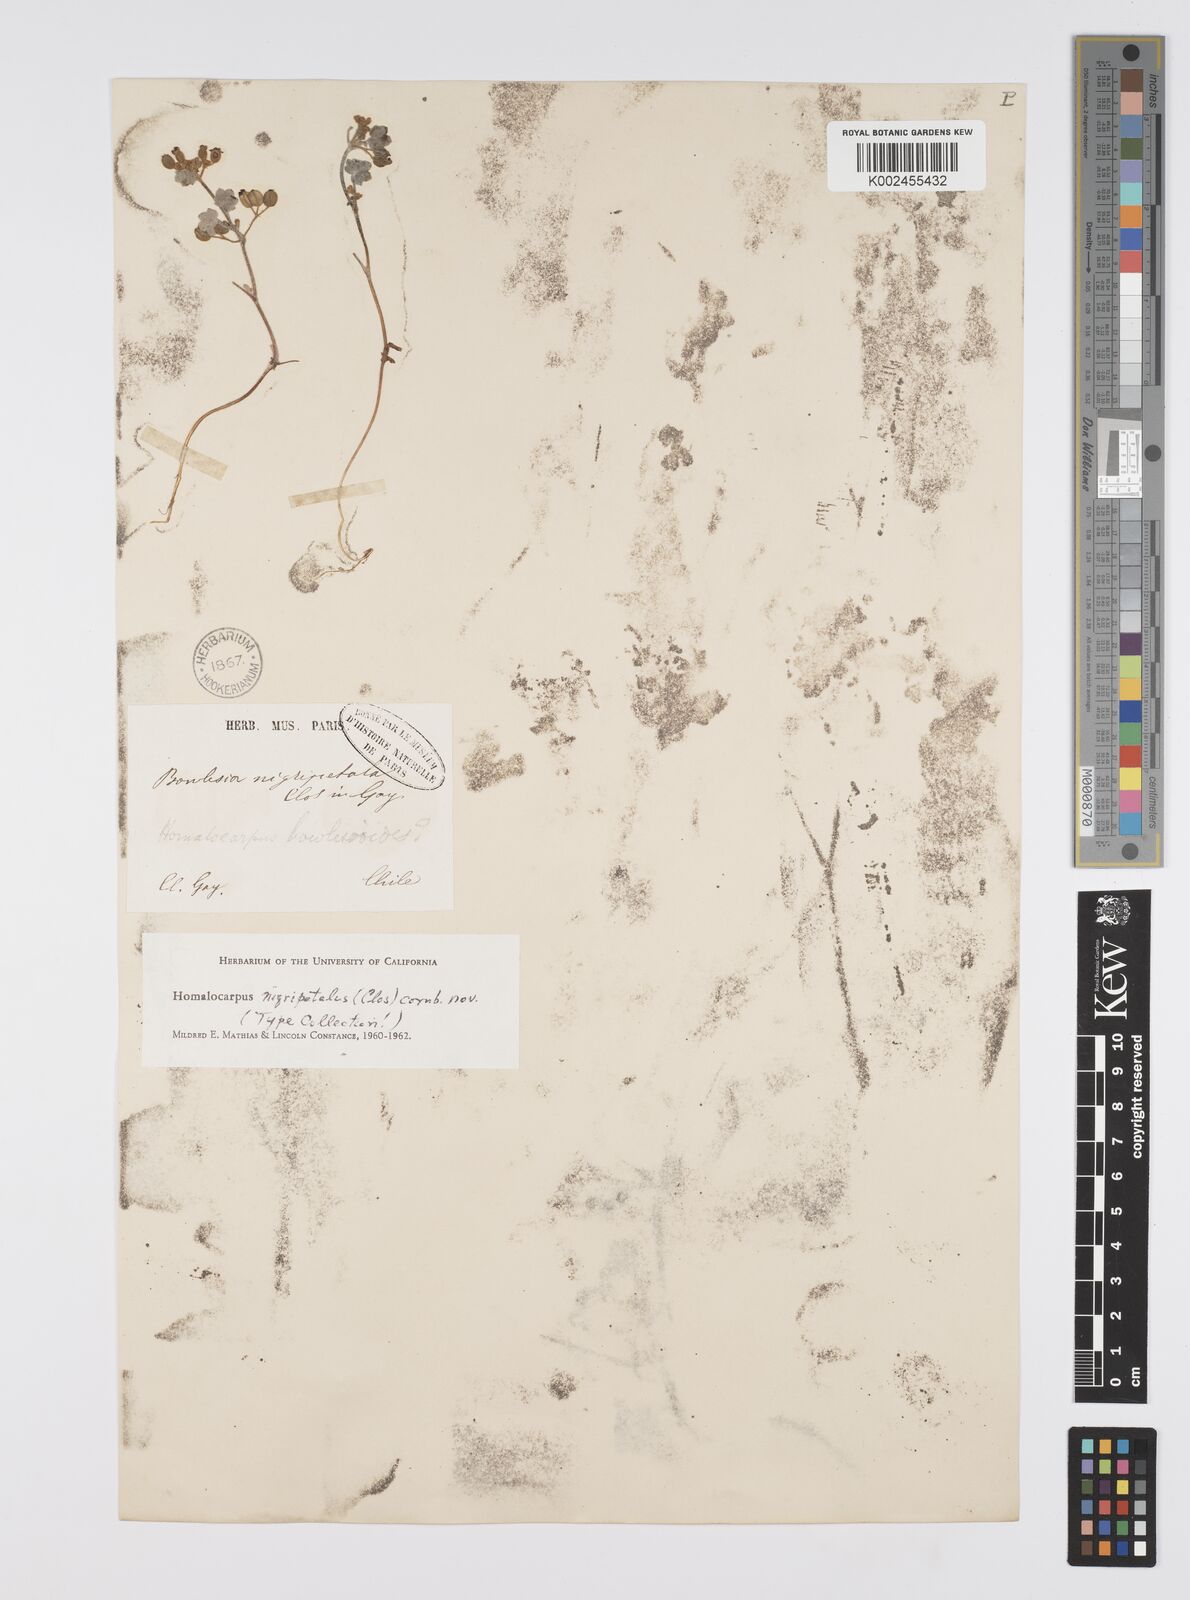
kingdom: Plantae
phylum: Tracheophyta
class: Magnoliopsida
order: Apiales
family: Apiaceae
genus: Homalocarpus
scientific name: Homalocarpus
